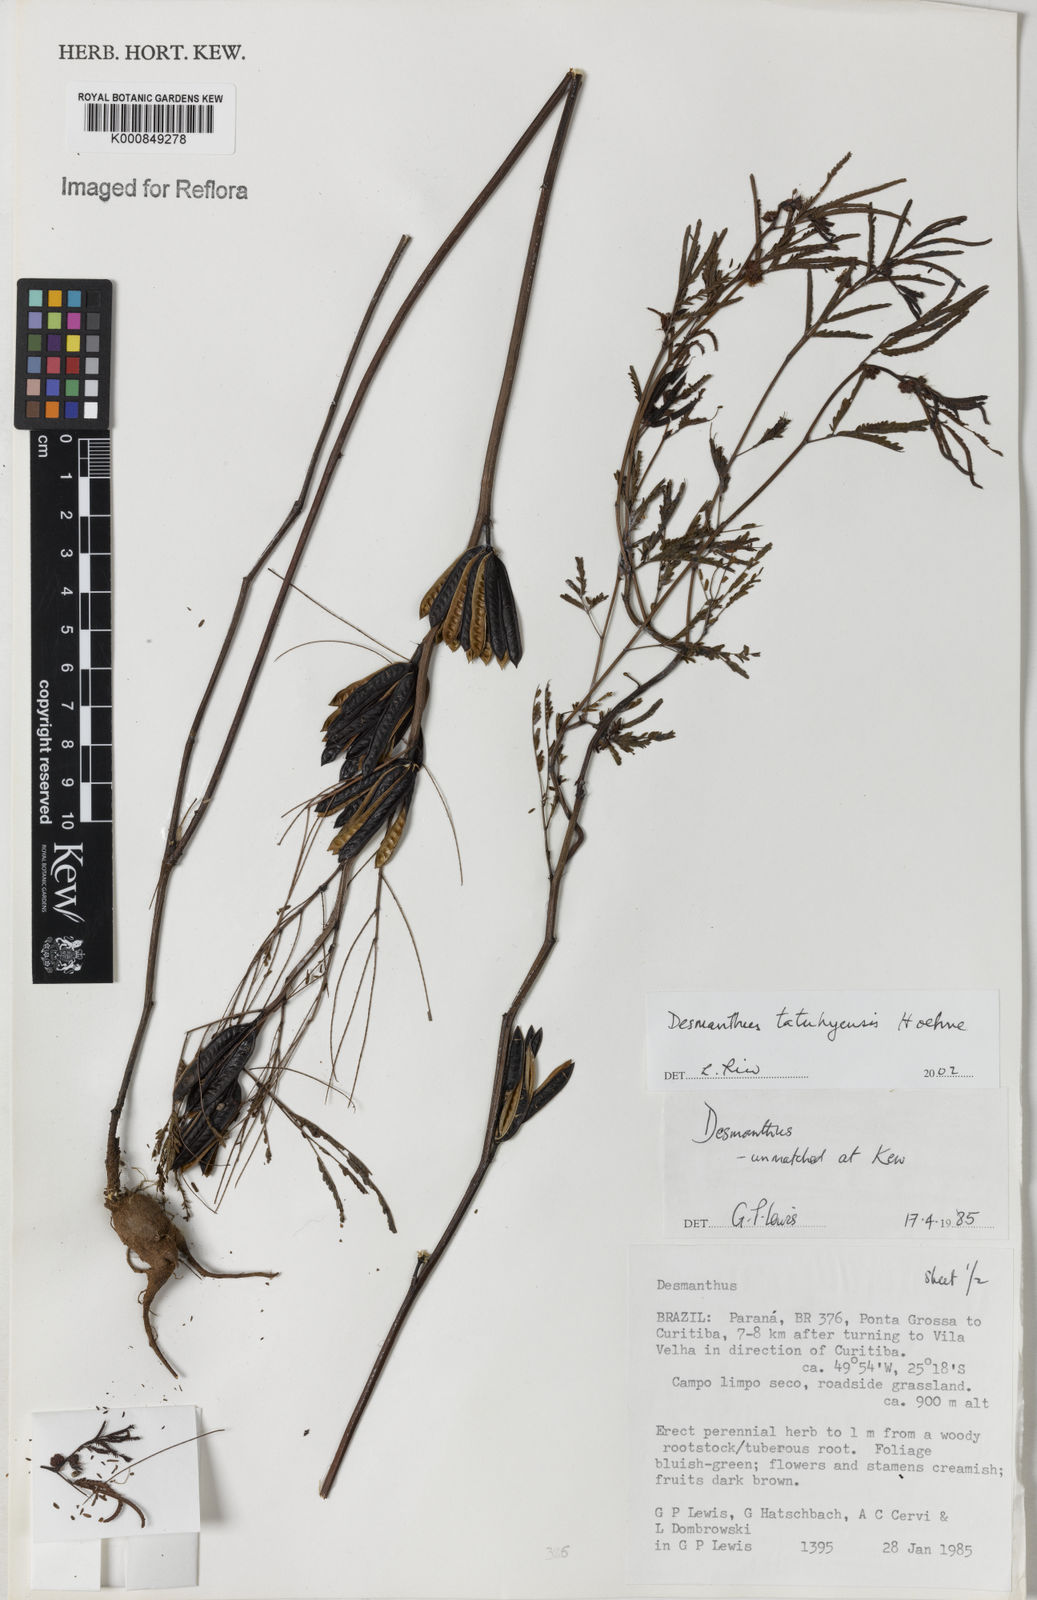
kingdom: Plantae
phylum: Tracheophyta
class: Magnoliopsida
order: Fabales
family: Fabaceae
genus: Desmanthus
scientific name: Desmanthus tatuhyensis
